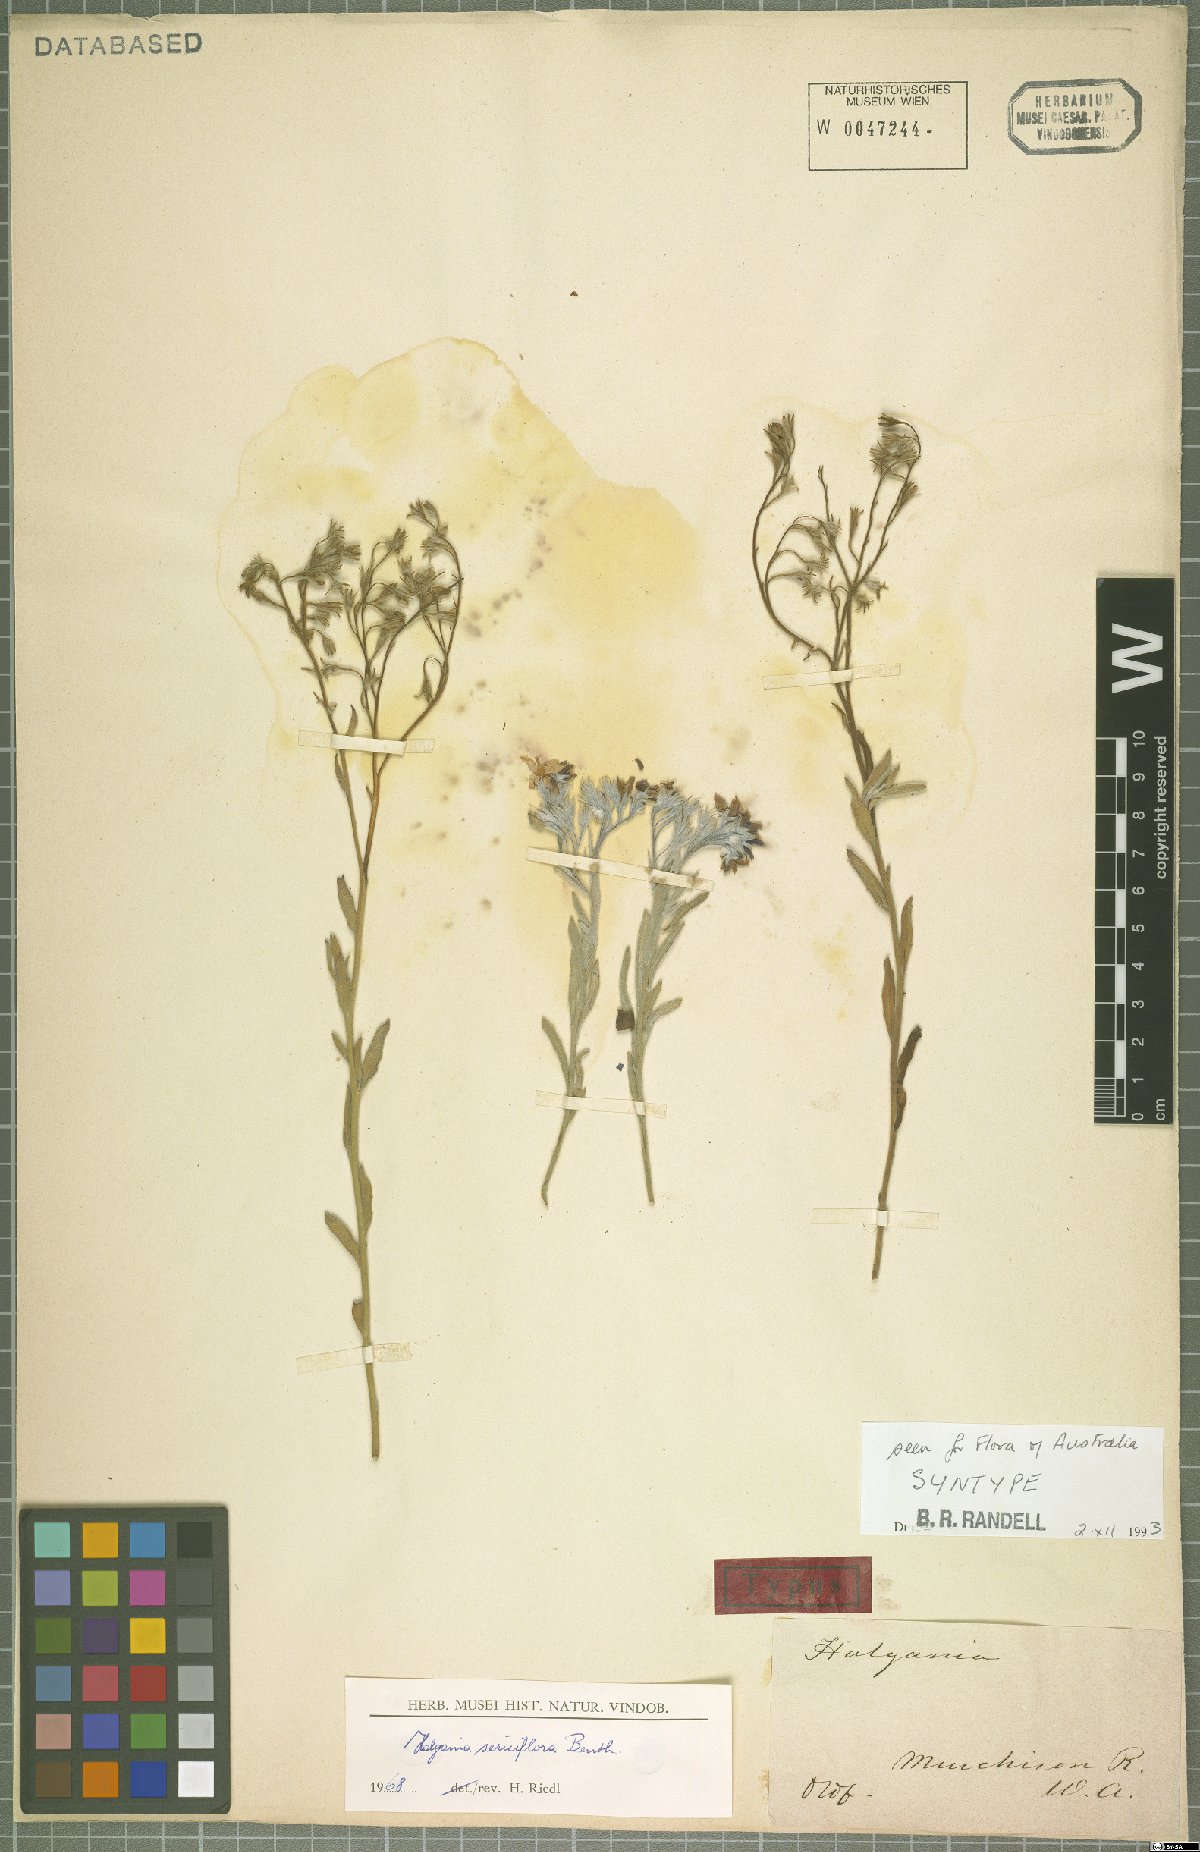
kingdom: Plantae
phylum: Tracheophyta
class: Magnoliopsida
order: Boraginales
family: Ehretiaceae
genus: Halgania
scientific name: Halgania sericiflora
